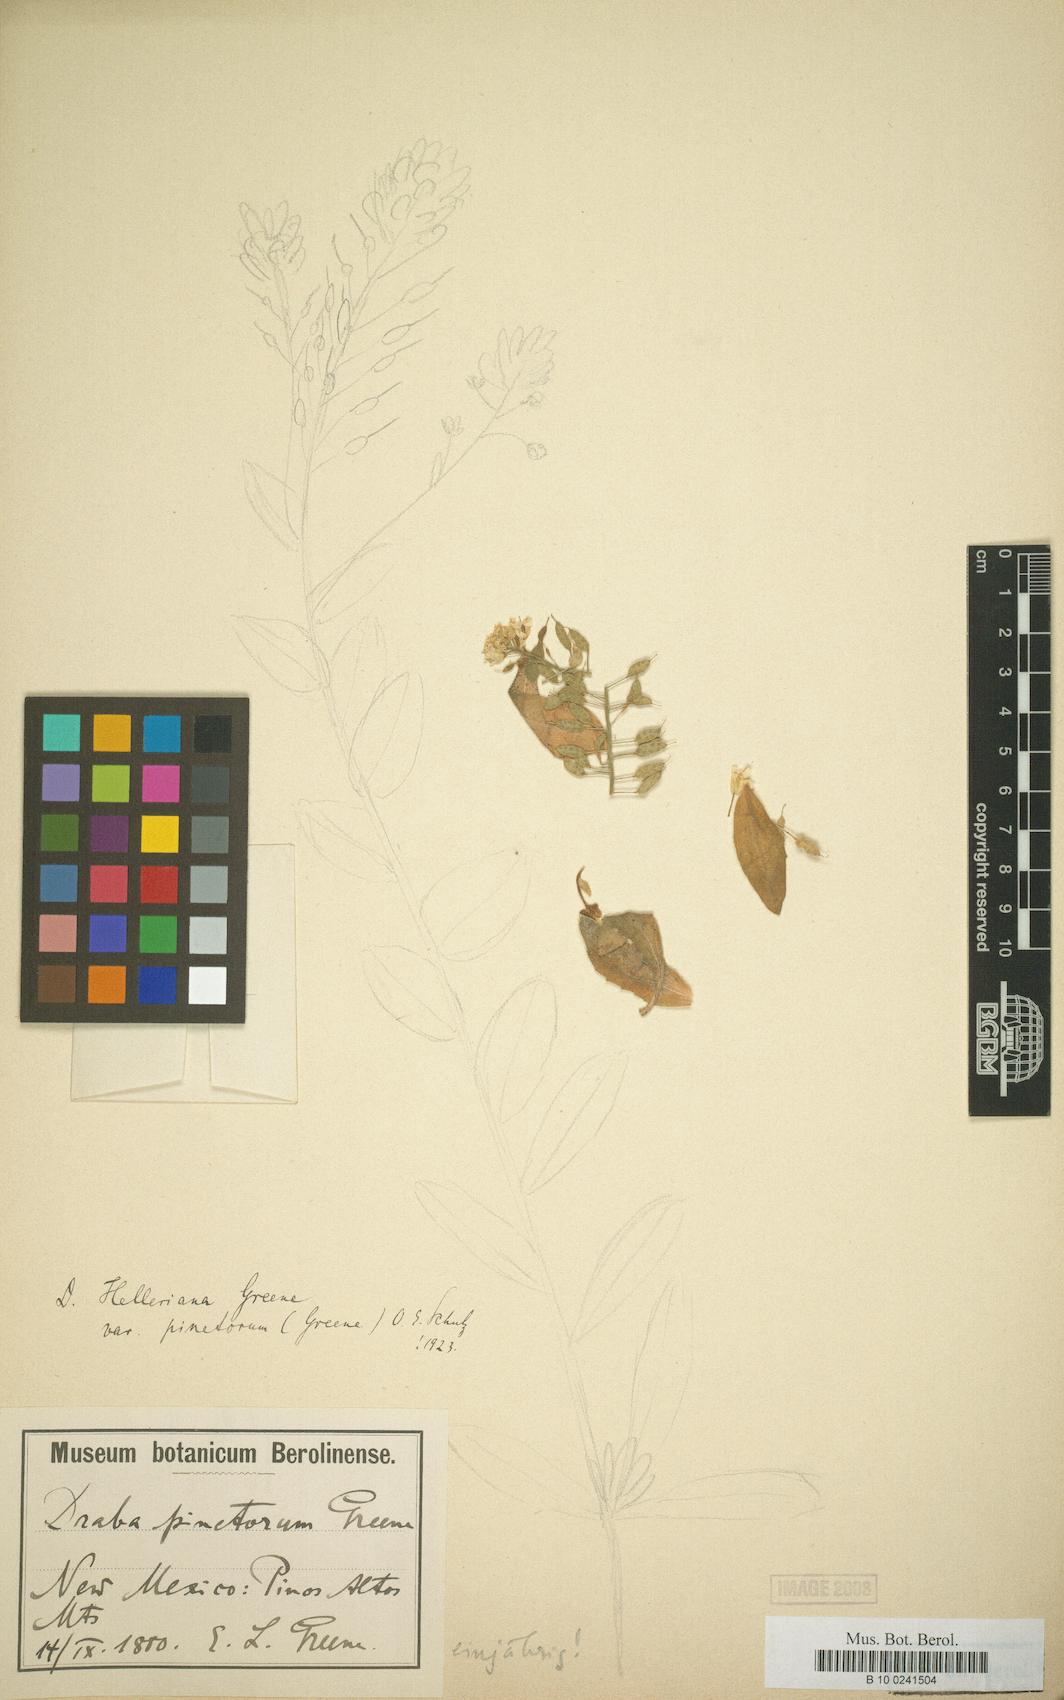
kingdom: Plantae
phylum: Tracheophyta
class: Magnoliopsida
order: Brassicales
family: Brassicaceae
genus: Draba
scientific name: Draba helleriana
